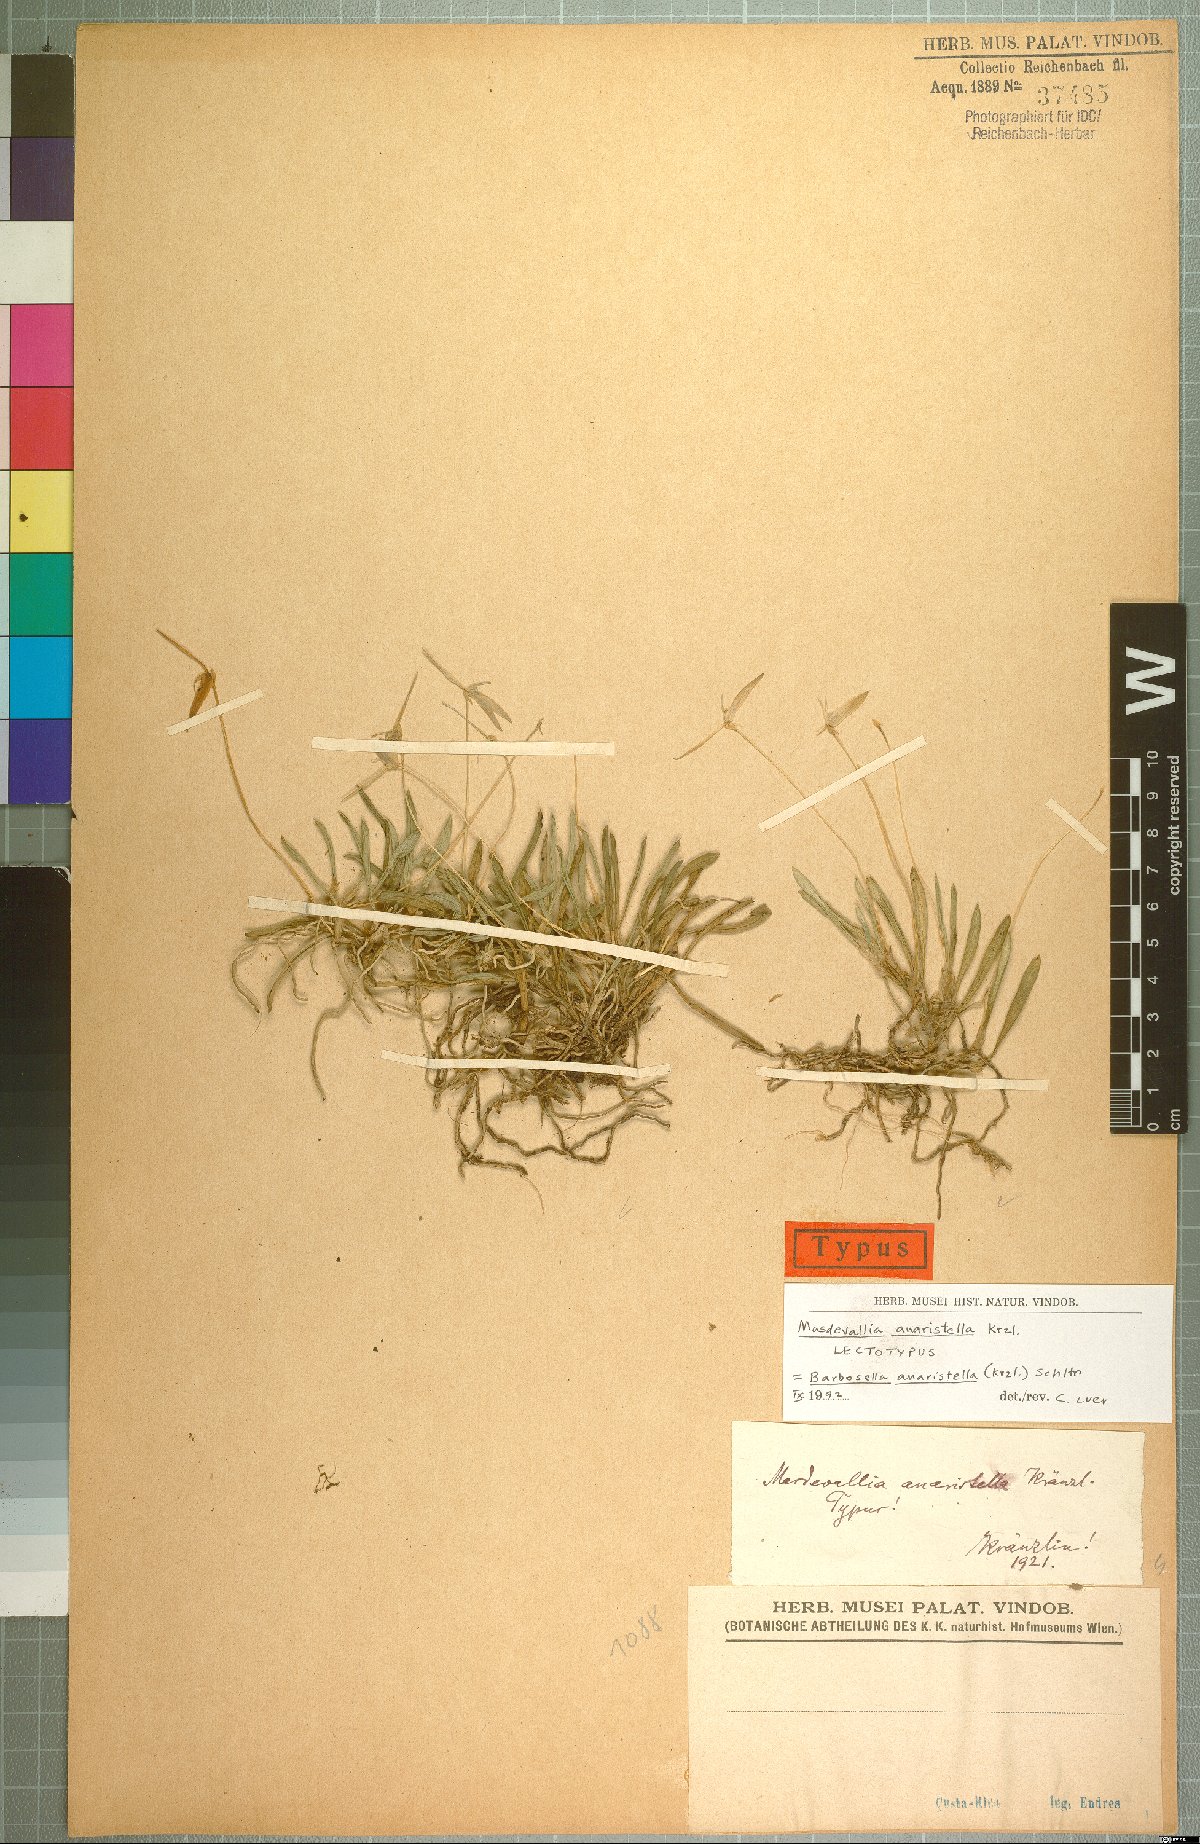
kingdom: Plantae
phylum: Tracheophyta
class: Liliopsida
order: Asparagales
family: Orchidaceae
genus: Barbosella
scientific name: Barbosella dolichorhiza
